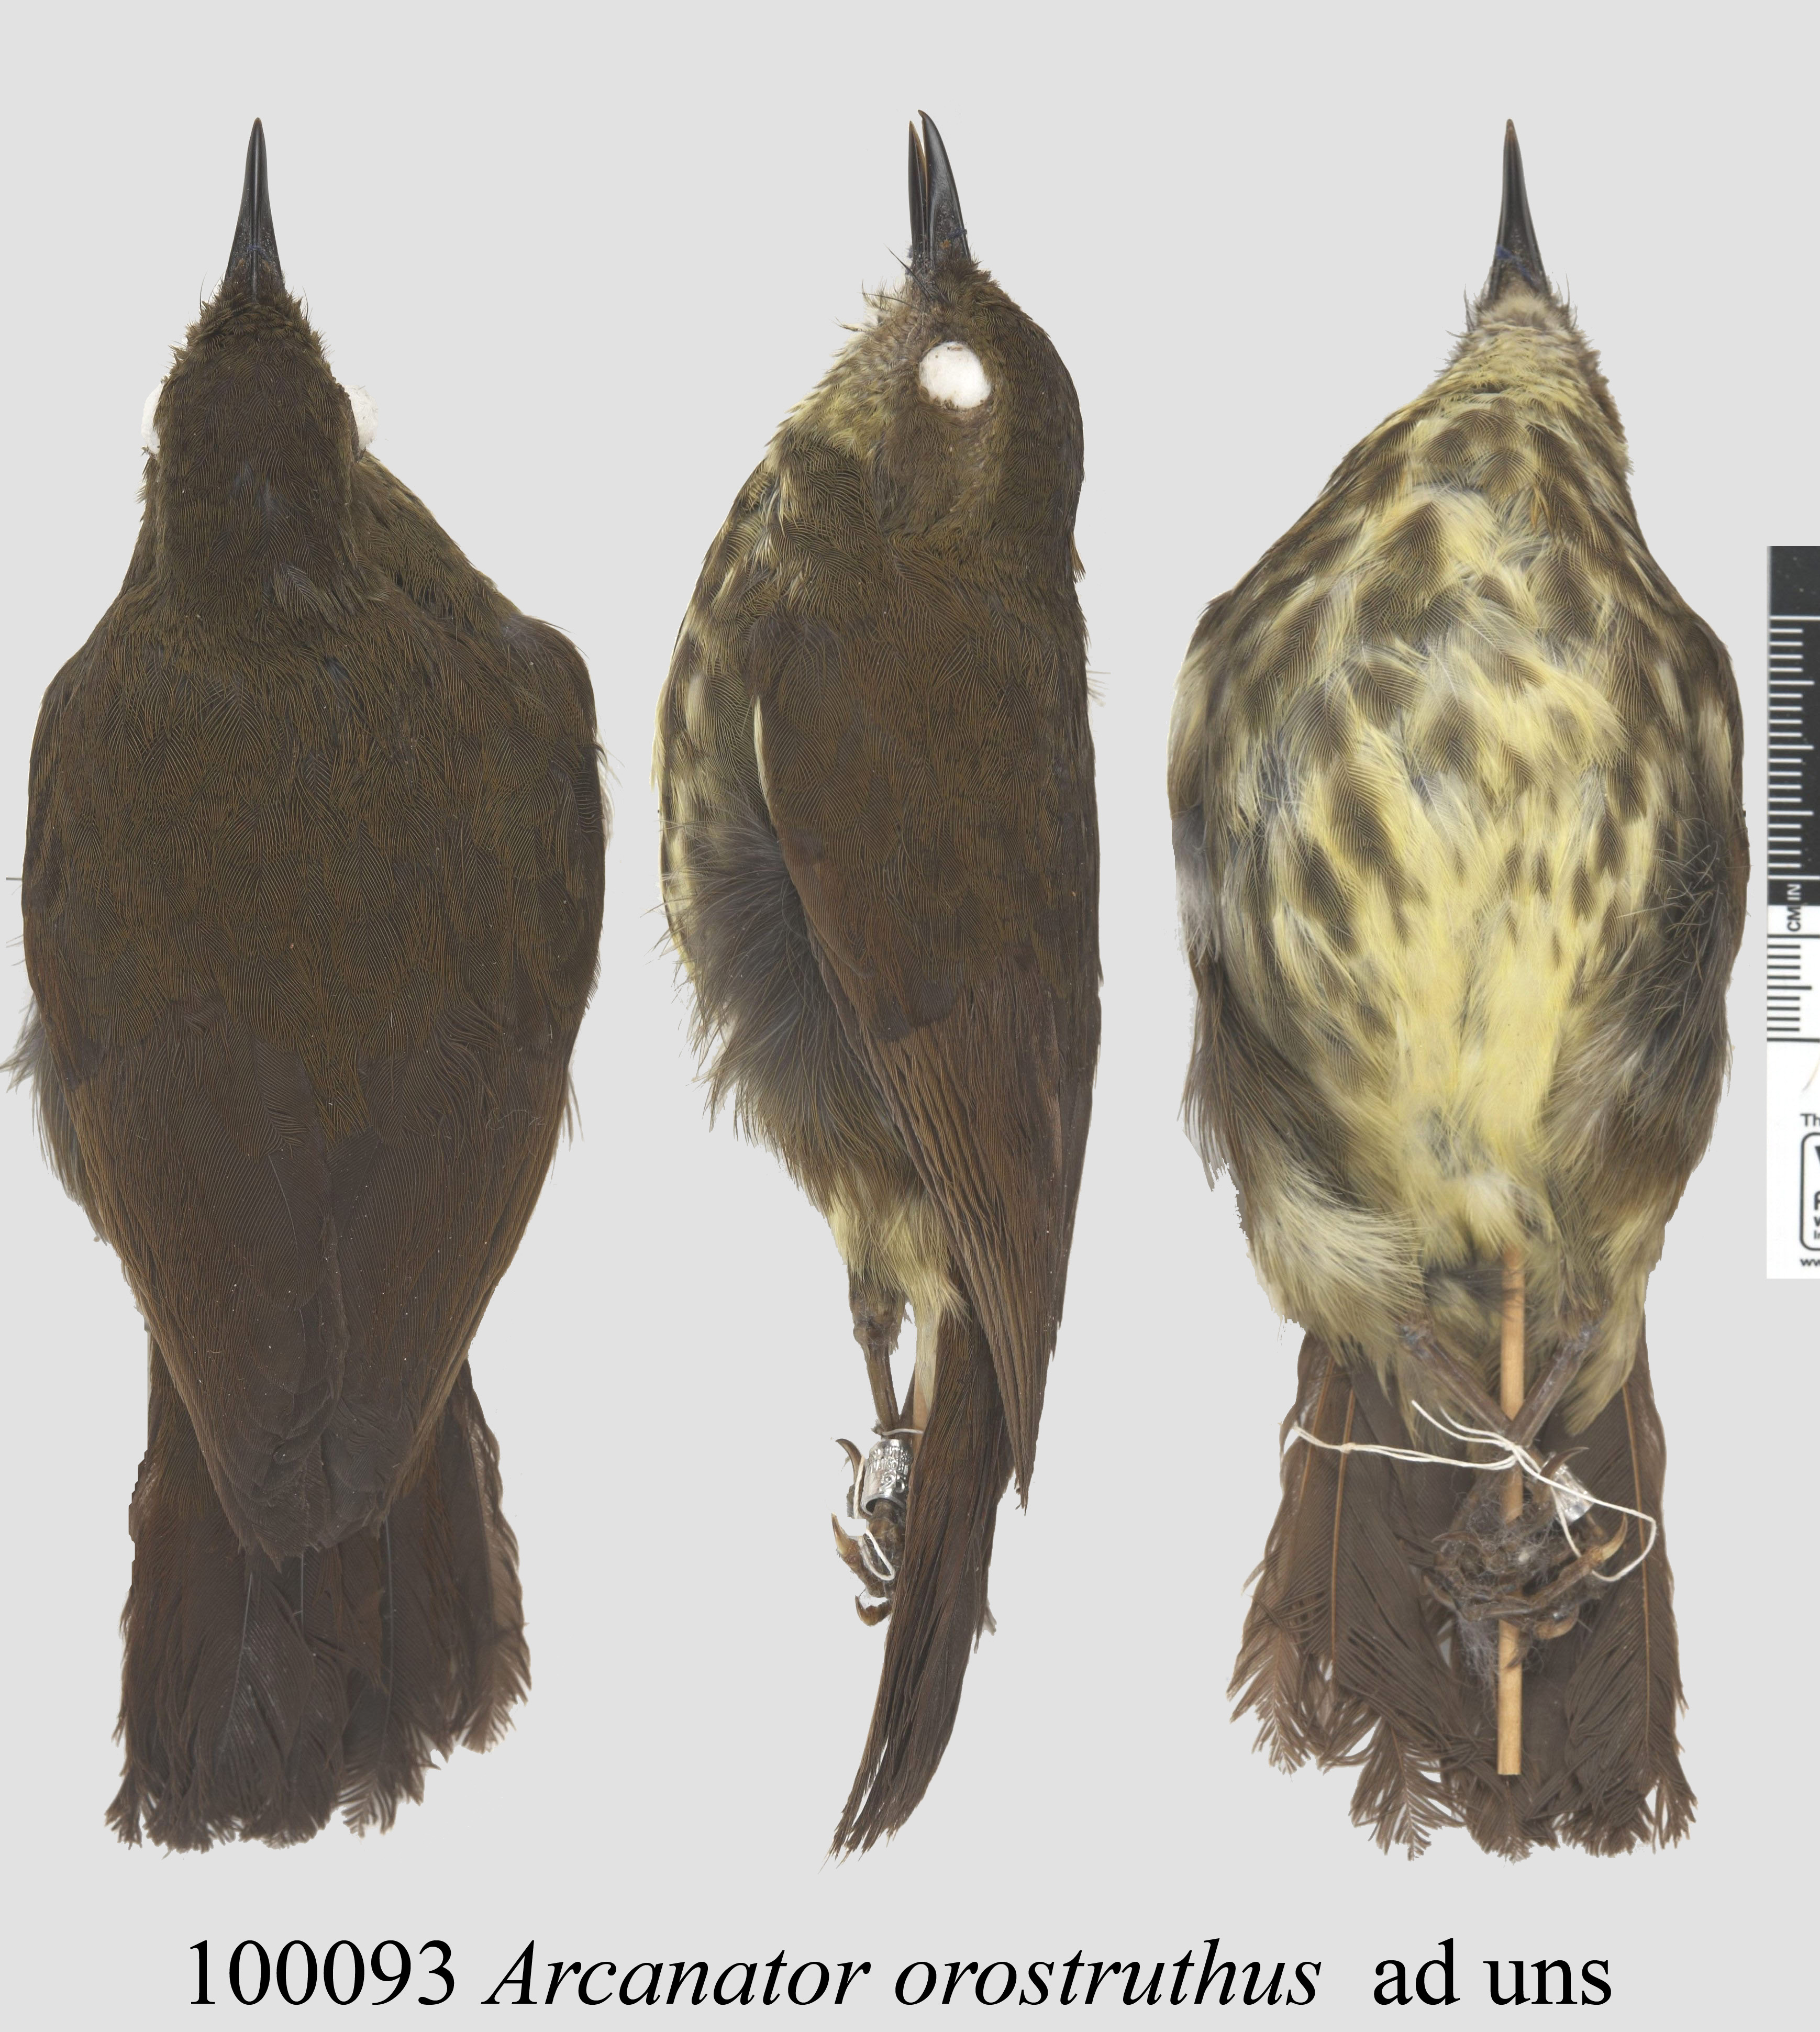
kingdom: Animalia
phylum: Chordata
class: Aves
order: Passeriformes
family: Arcanatoridae
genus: Arcanator
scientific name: Arcanator orostruthus
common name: Dapple-throat
